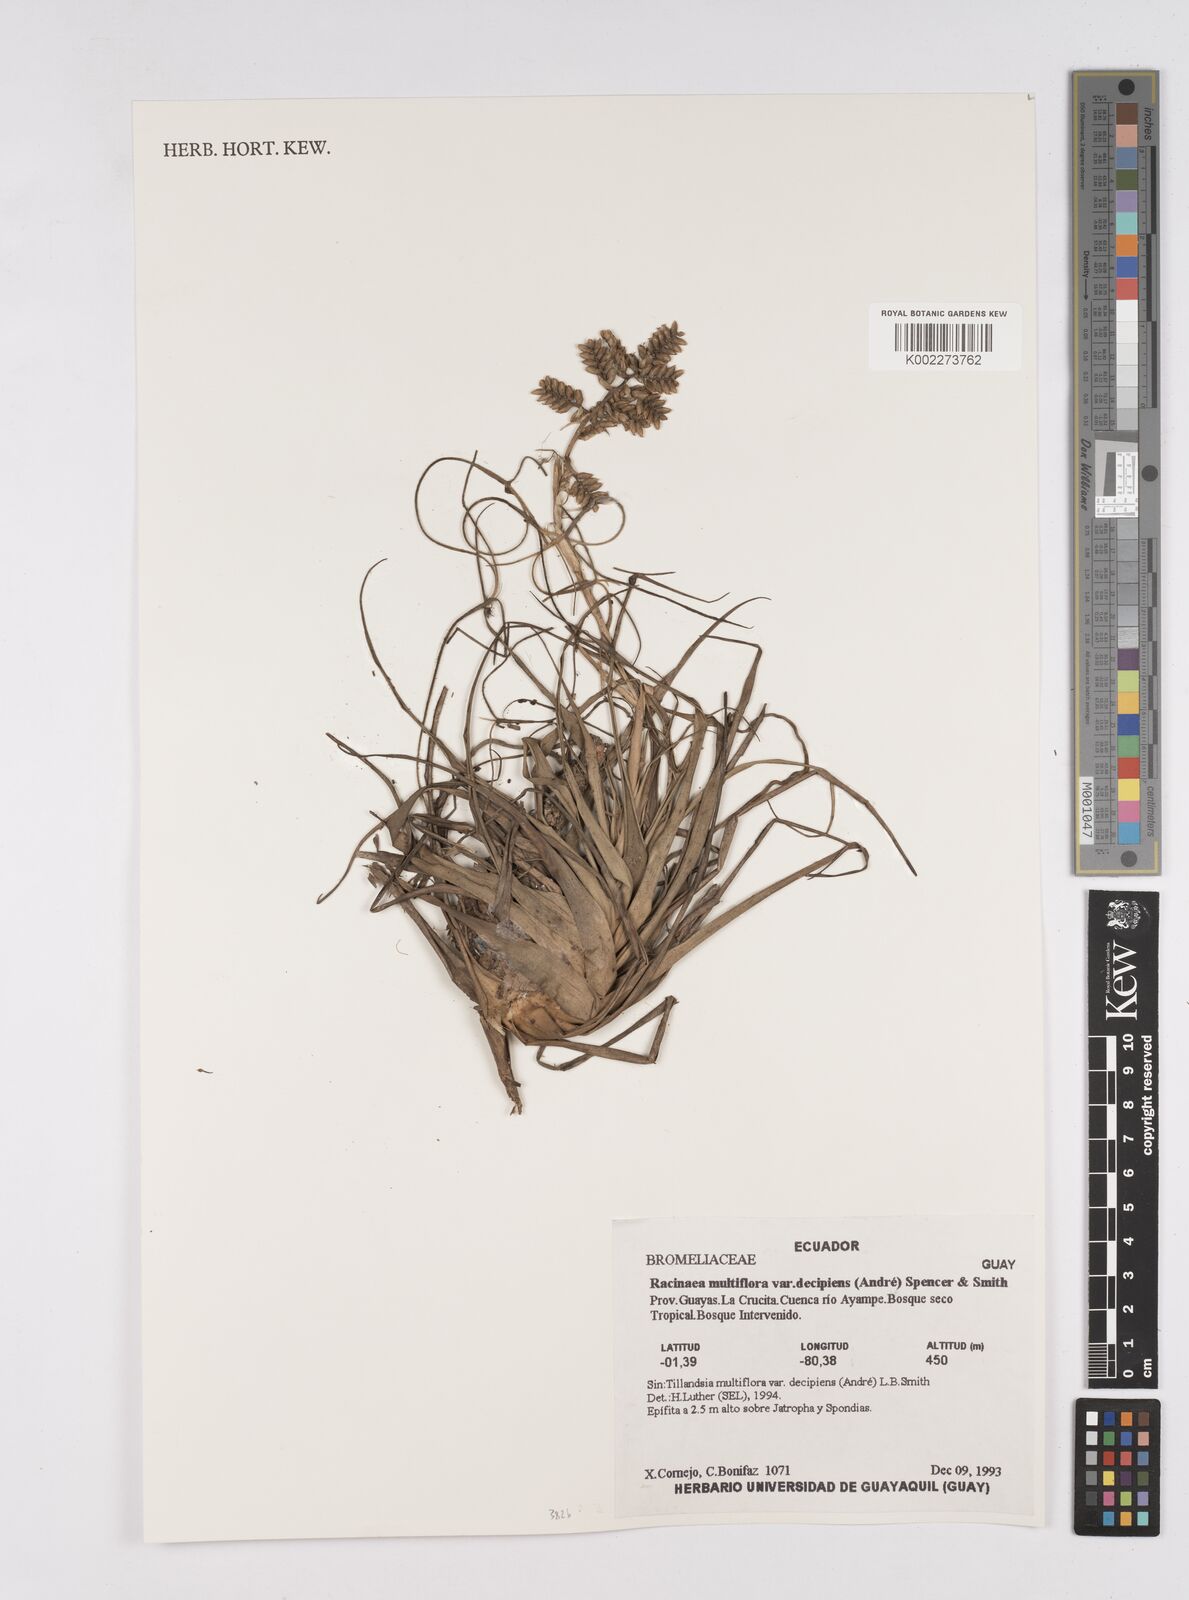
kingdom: Plantae
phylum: Tracheophyta
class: Liliopsida
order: Poales
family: Bromeliaceae
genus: Racinaea
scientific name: Racinaea multiflora
